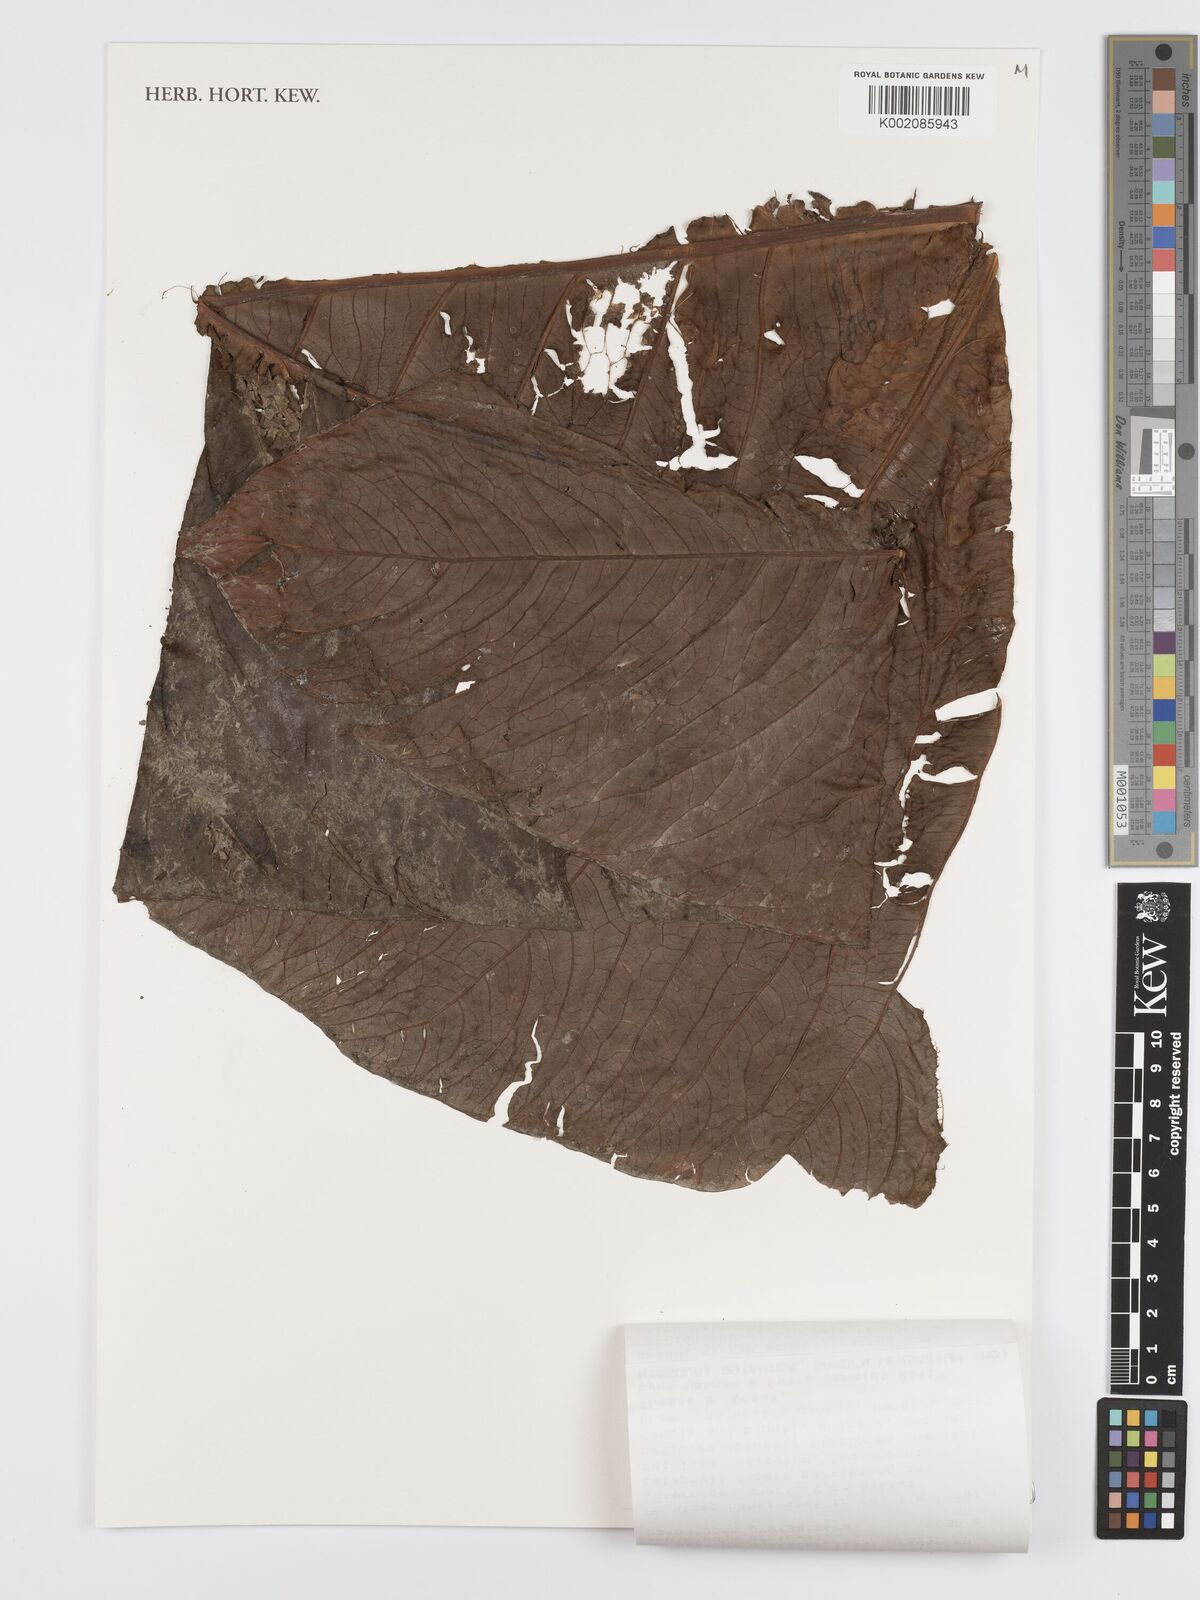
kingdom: Plantae
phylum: Tracheophyta
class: Liliopsida
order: Alismatales
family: Araceae
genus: Anthurium
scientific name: Anthurium
